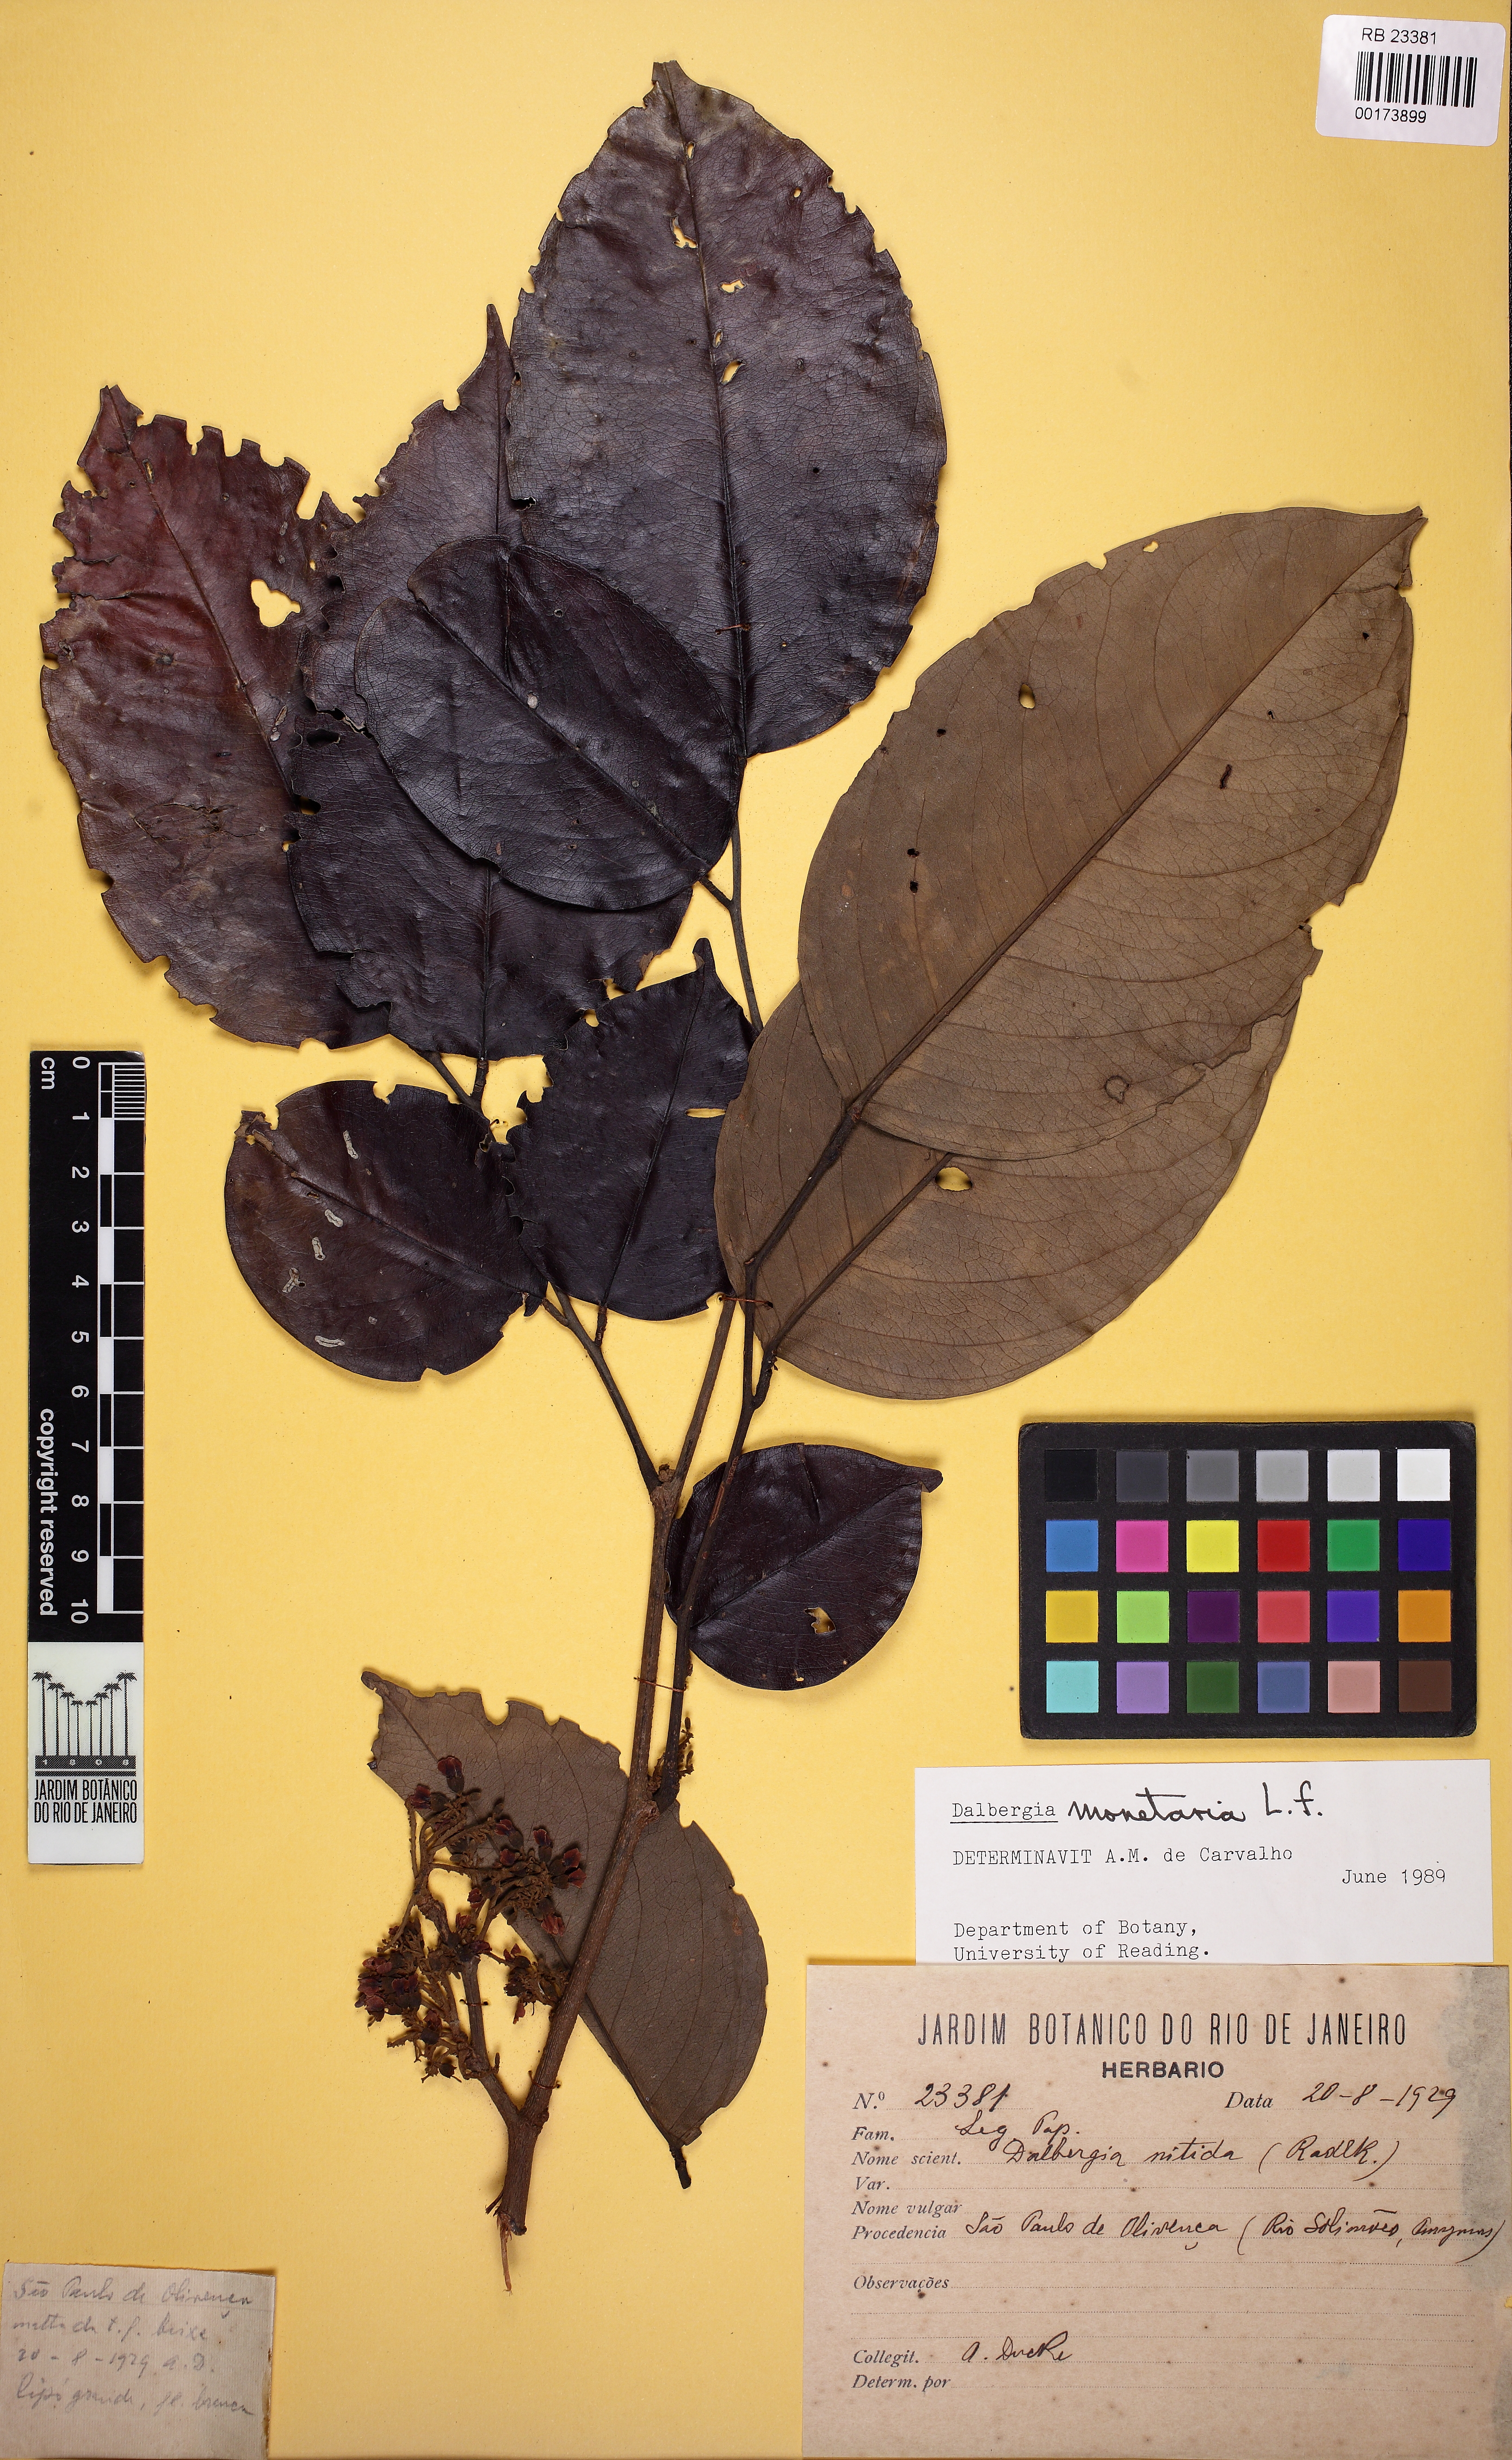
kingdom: Plantae
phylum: Tracheophyta
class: Magnoliopsida
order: Fabales
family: Fabaceae
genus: Dalbergia
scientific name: Dalbergia ovalis
